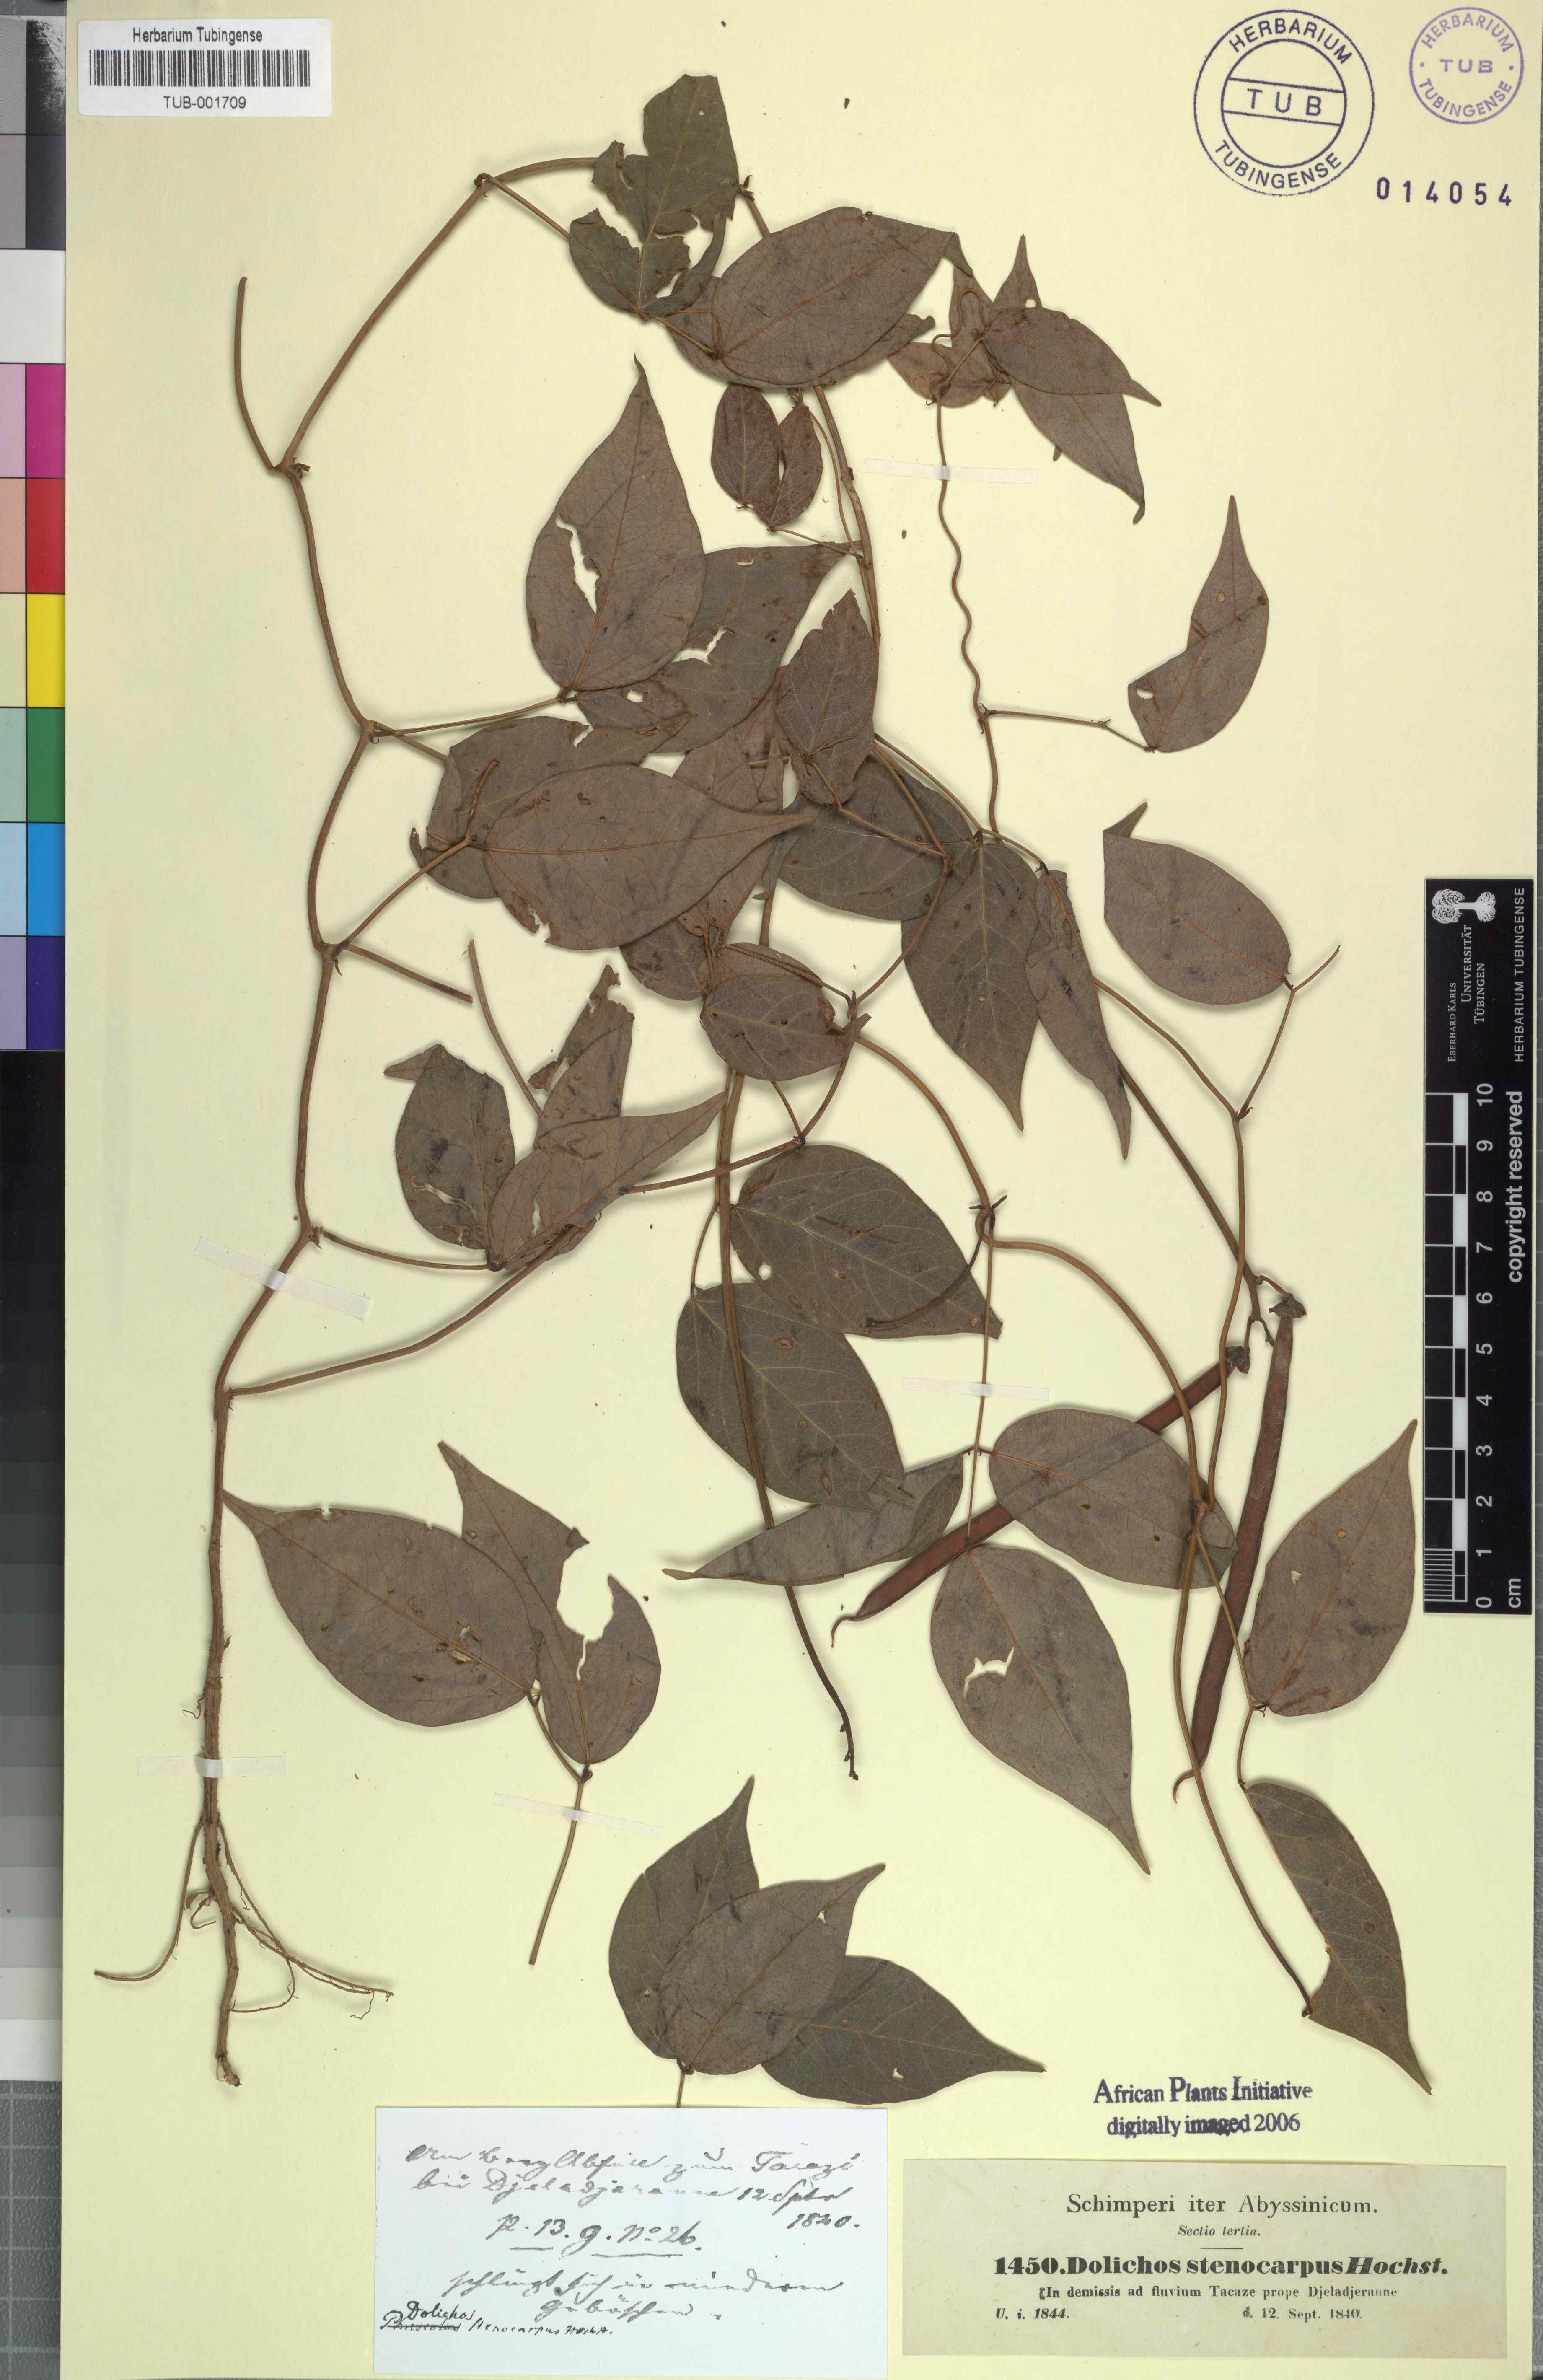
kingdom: Plantae
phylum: Tracheophyta
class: Magnoliopsida
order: Fabales
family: Fabaceae
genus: Sphenostylis
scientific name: Sphenostylis stenocarpa
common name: Yam-pea
